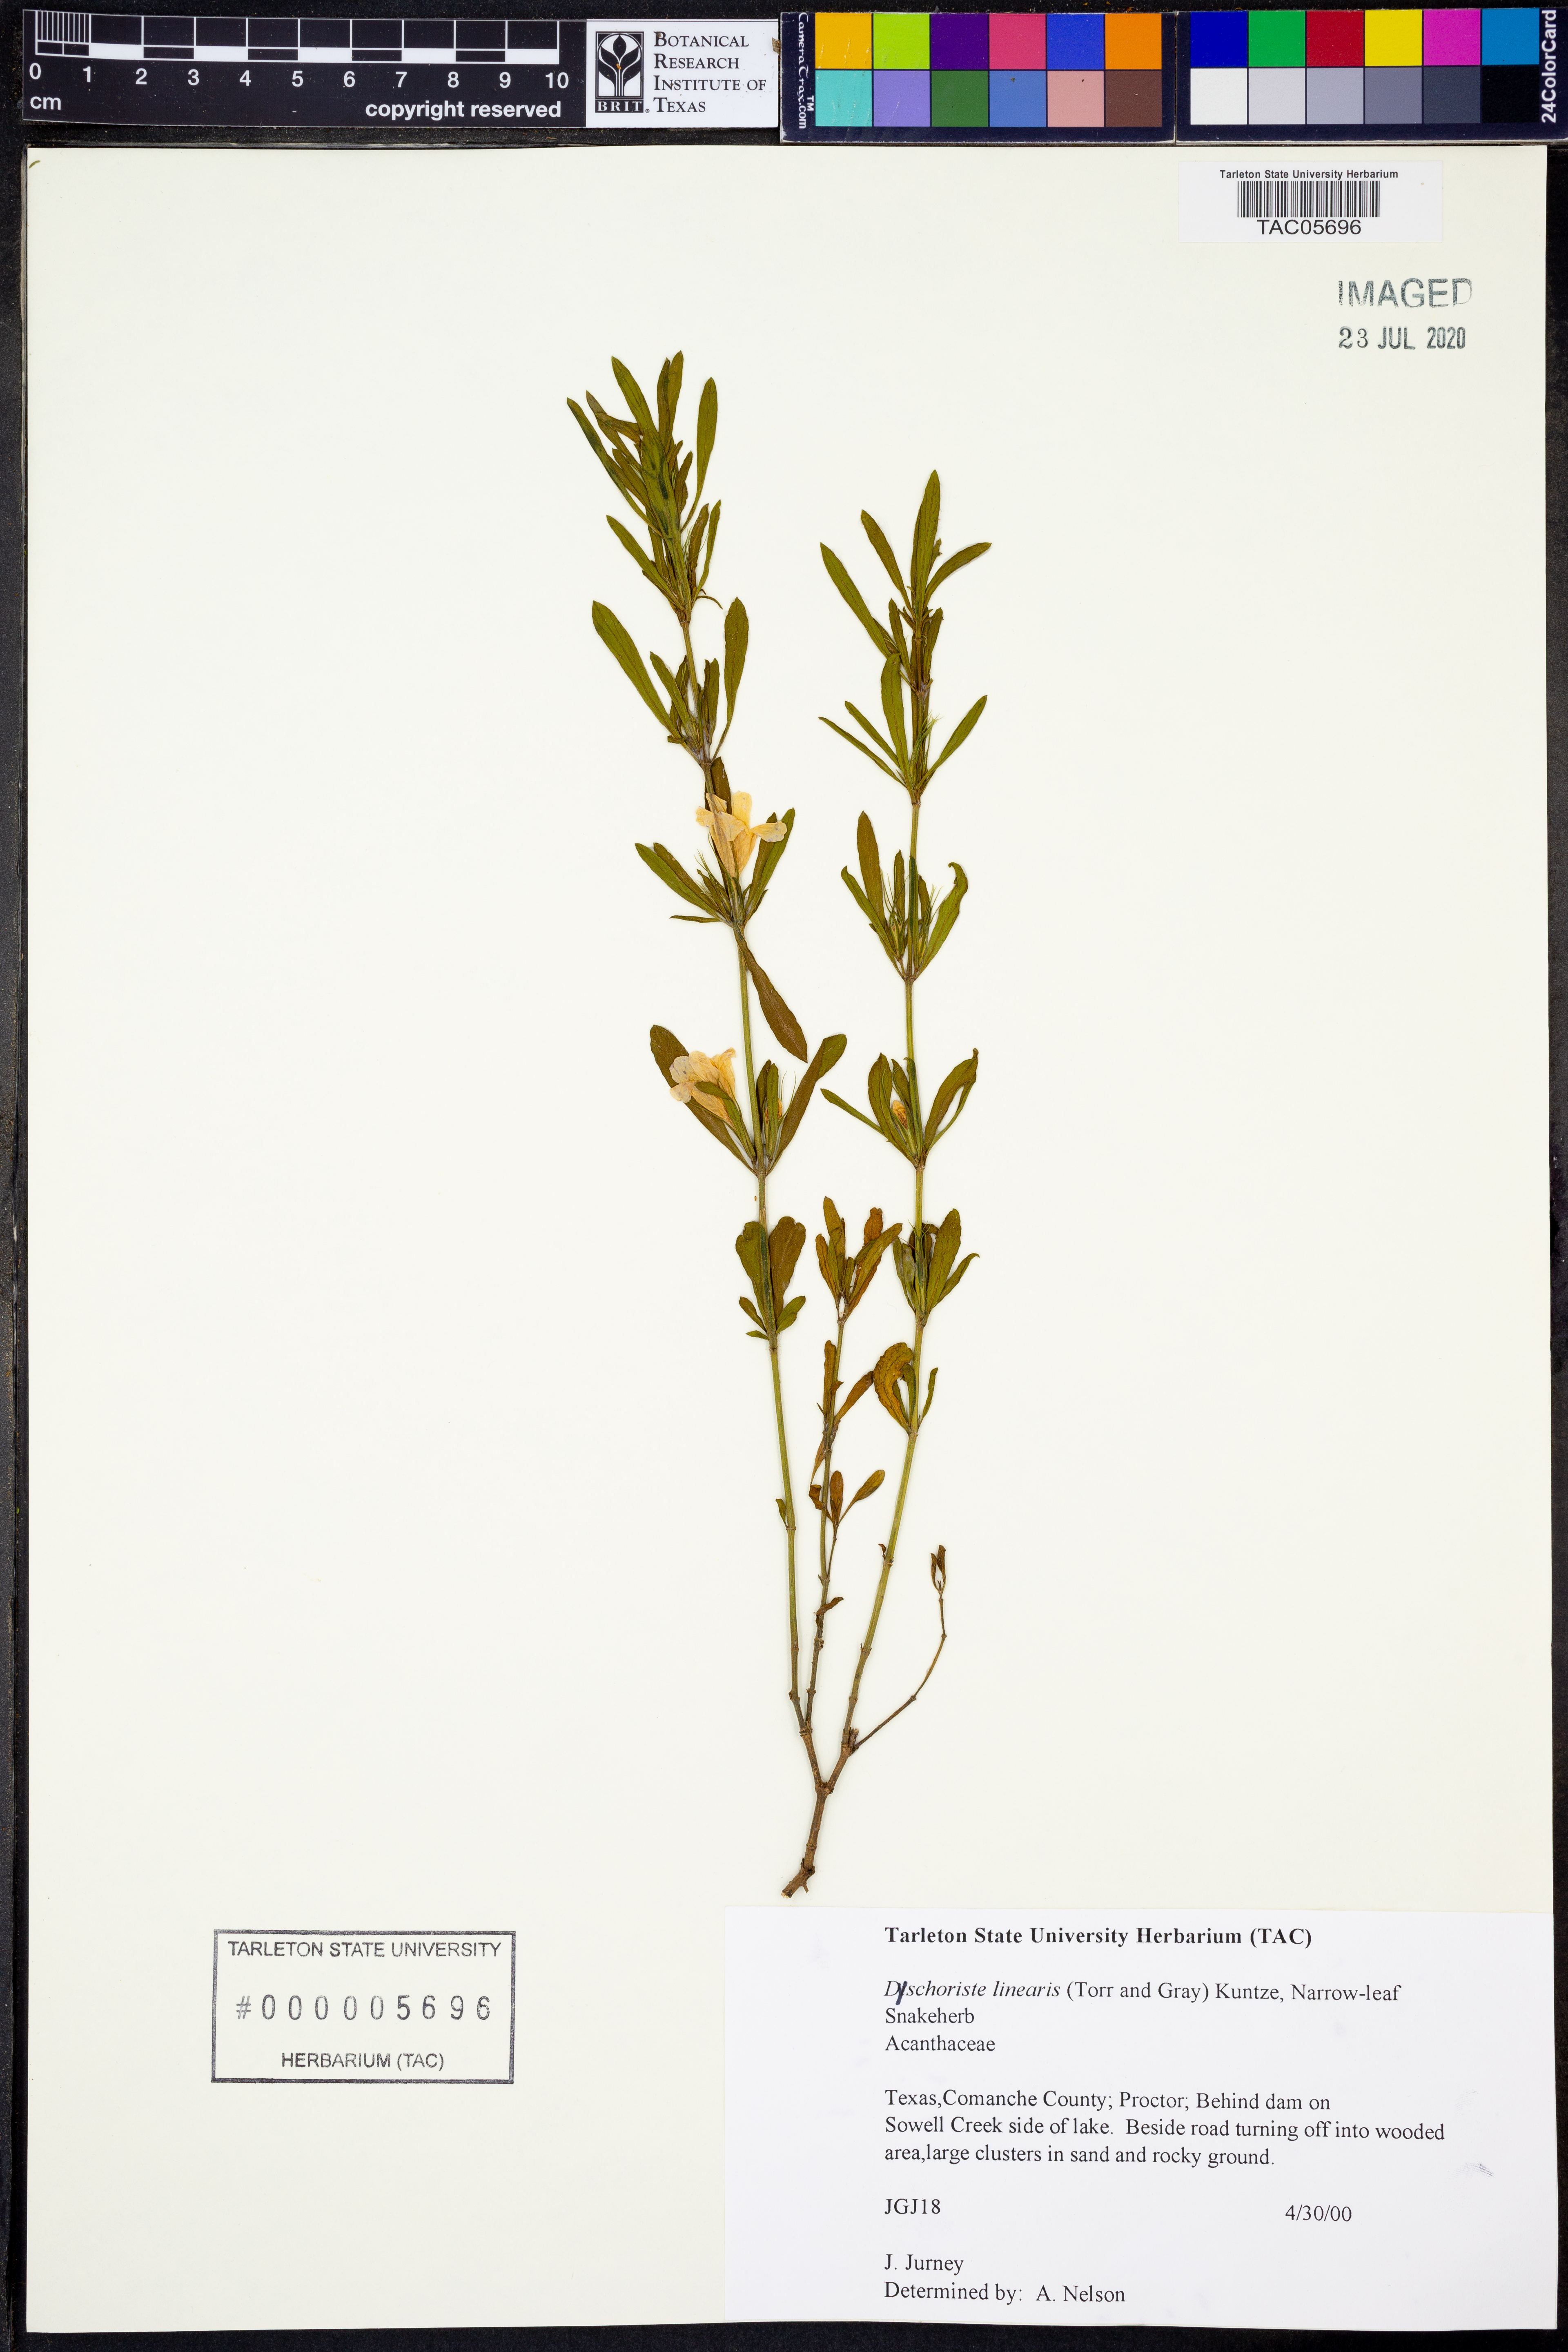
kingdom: Plantae
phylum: Tracheophyta
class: Magnoliopsida
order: Lamiales
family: Acanthaceae
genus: Dyschoriste
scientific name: Dyschoriste linearis
